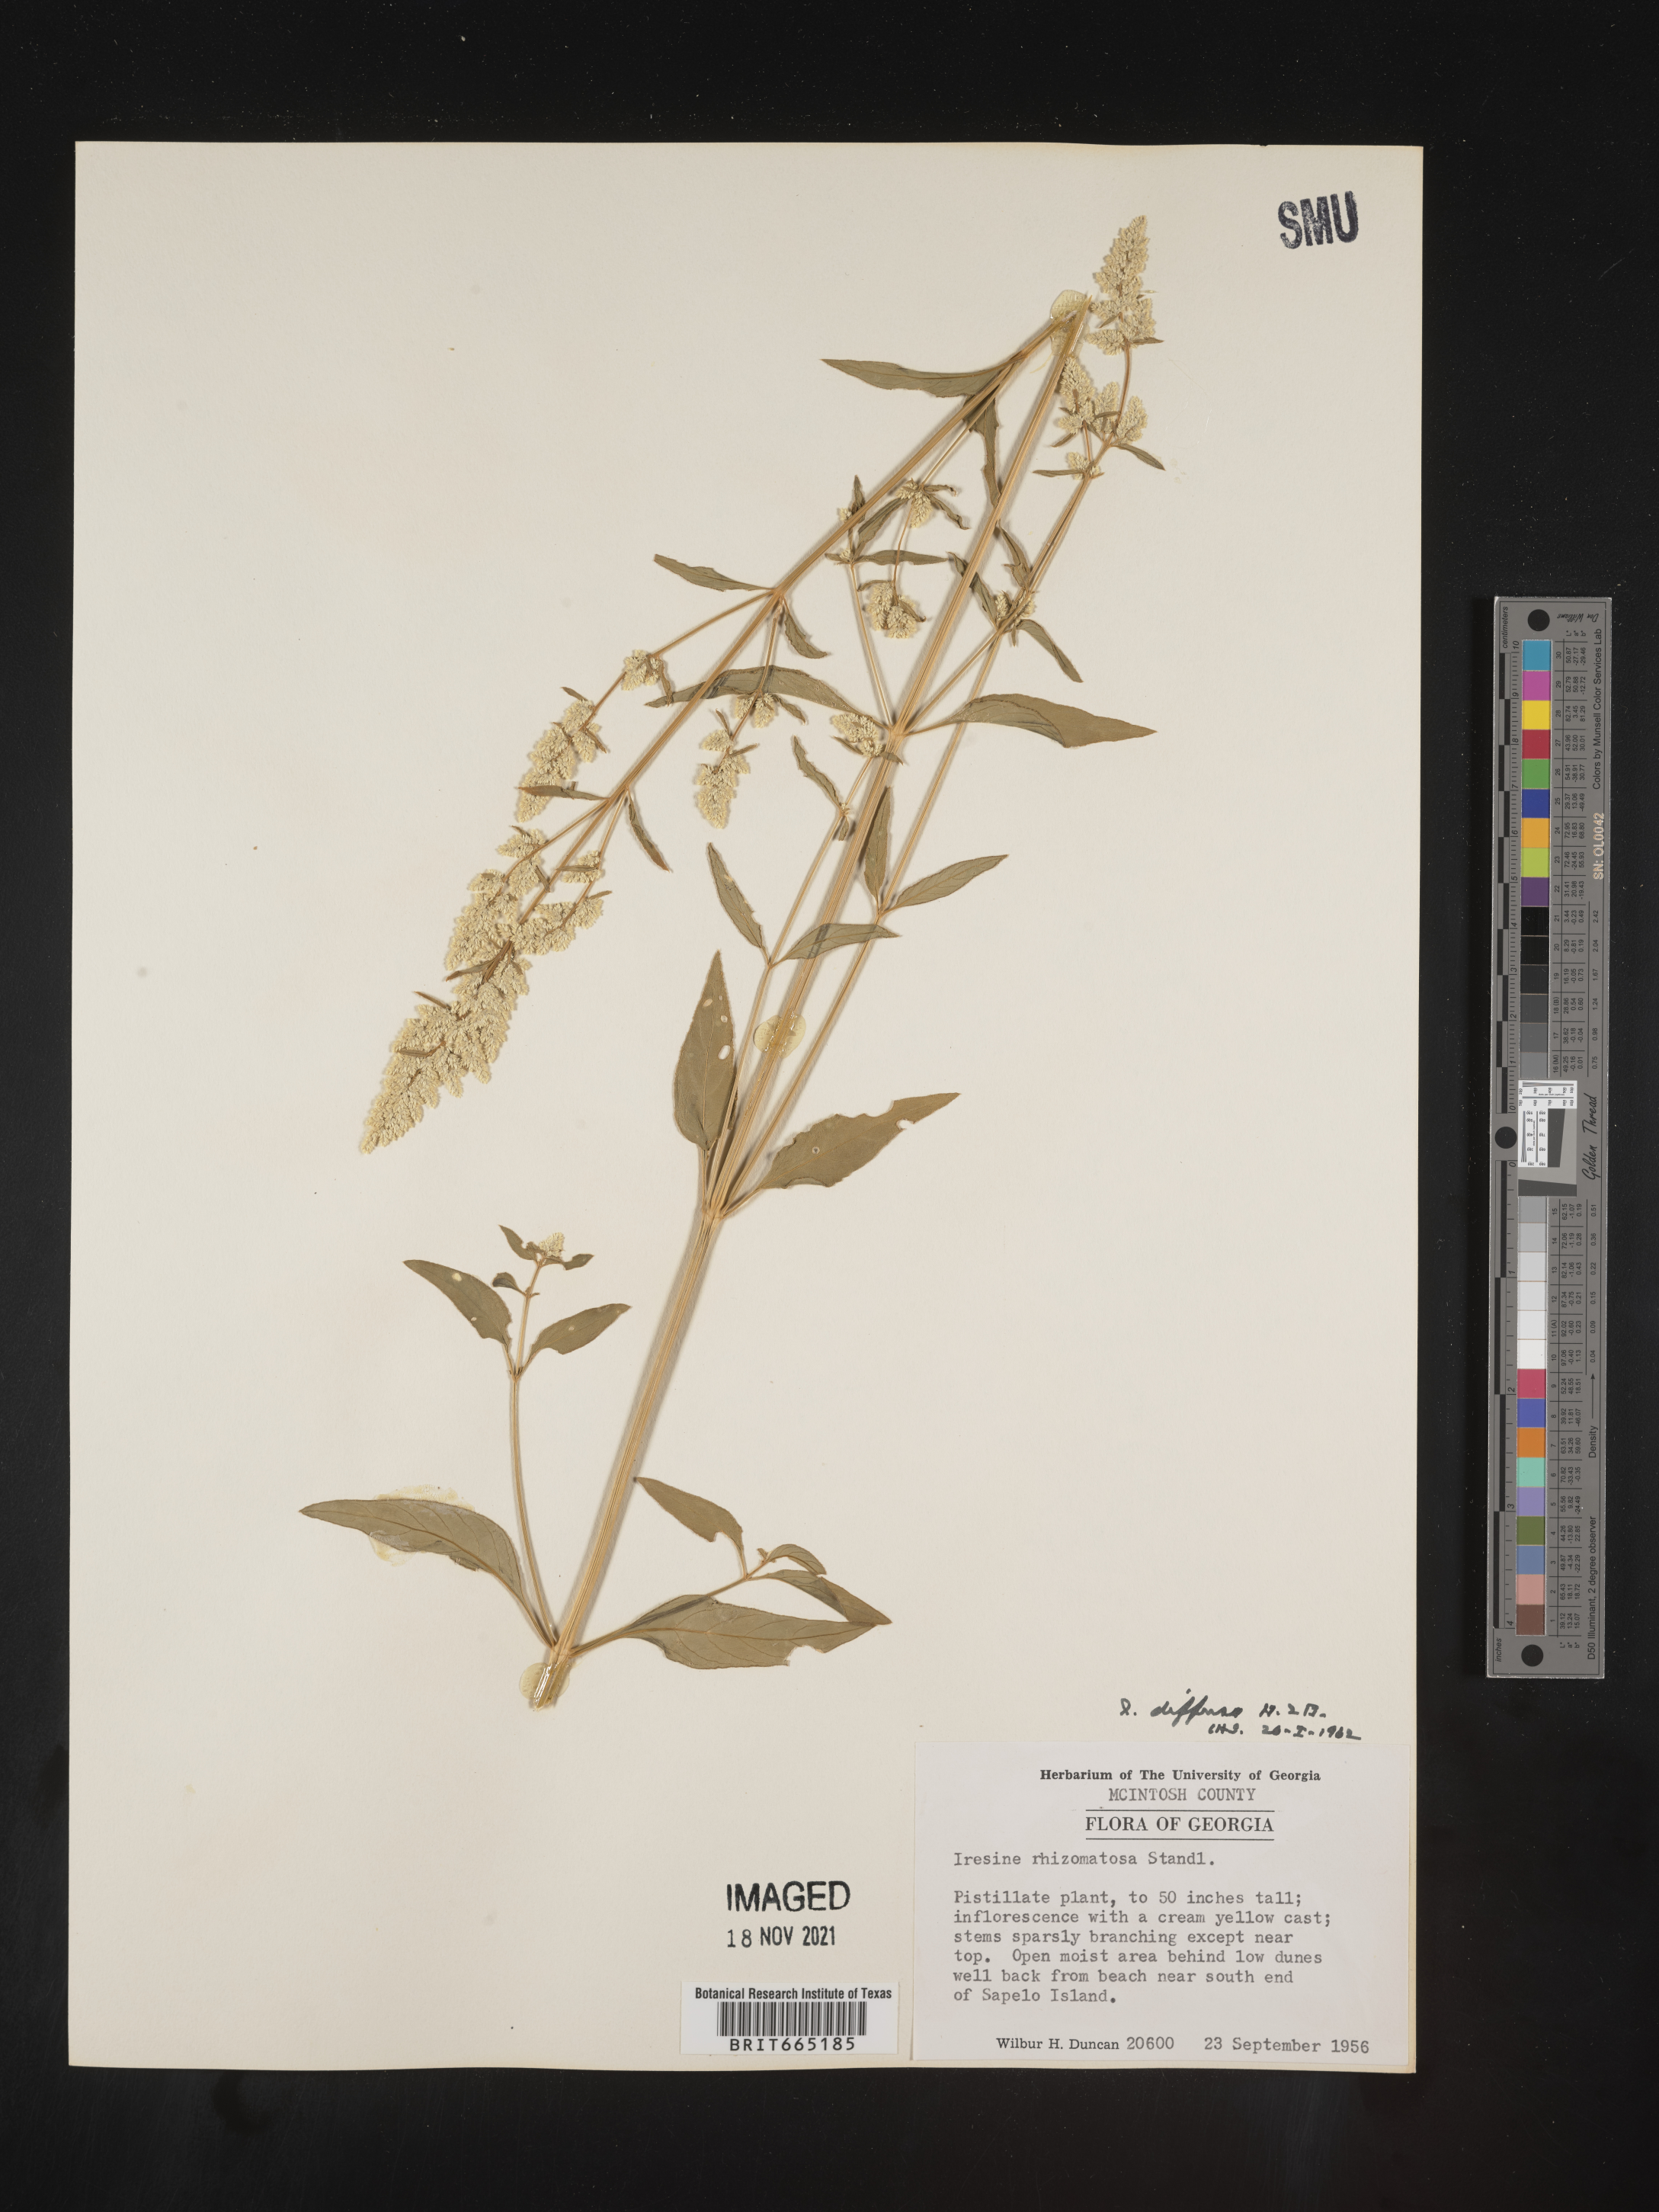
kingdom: Plantae
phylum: Tracheophyta
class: Magnoliopsida
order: Caryophyllales
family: Amaranthaceae
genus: Iresine
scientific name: Iresine rhizomatosa
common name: Juda's-bush
